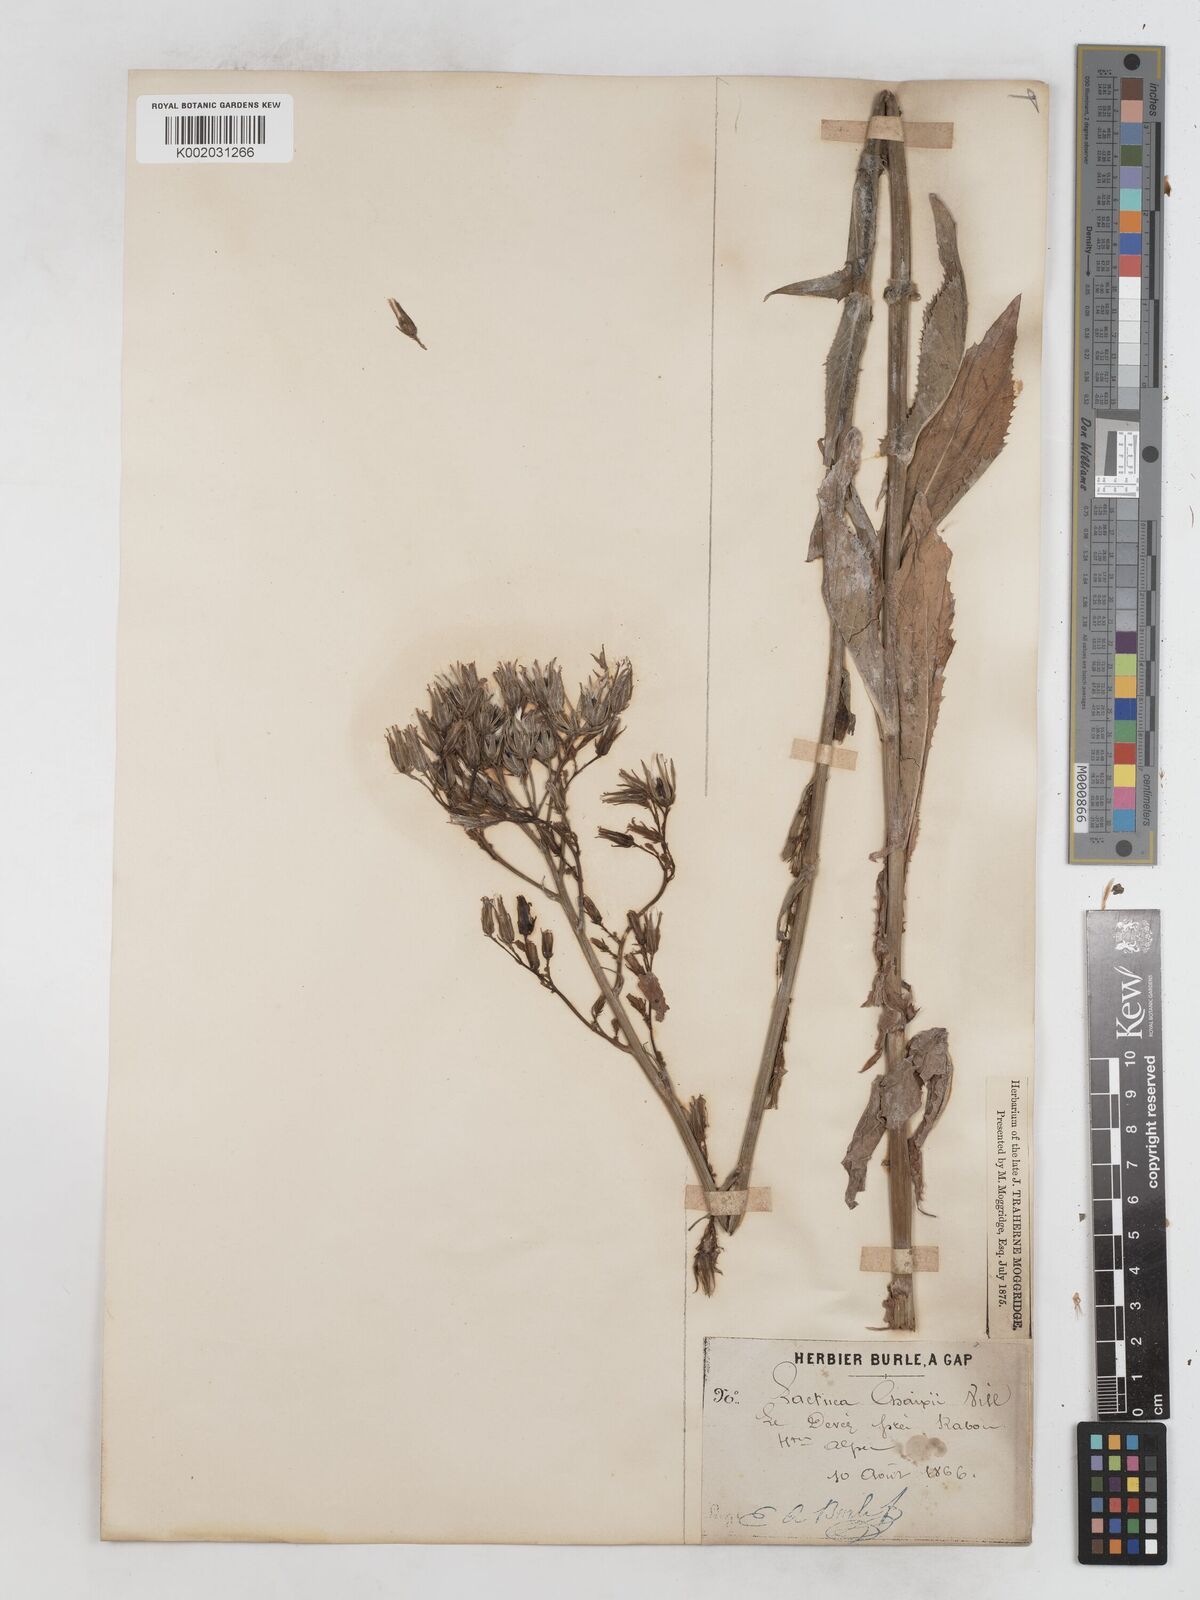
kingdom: Plantae
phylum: Tracheophyta
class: Magnoliopsida
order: Asterales
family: Asteraceae
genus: Lactuca
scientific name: Lactuca quercina
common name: Wild lettuce
